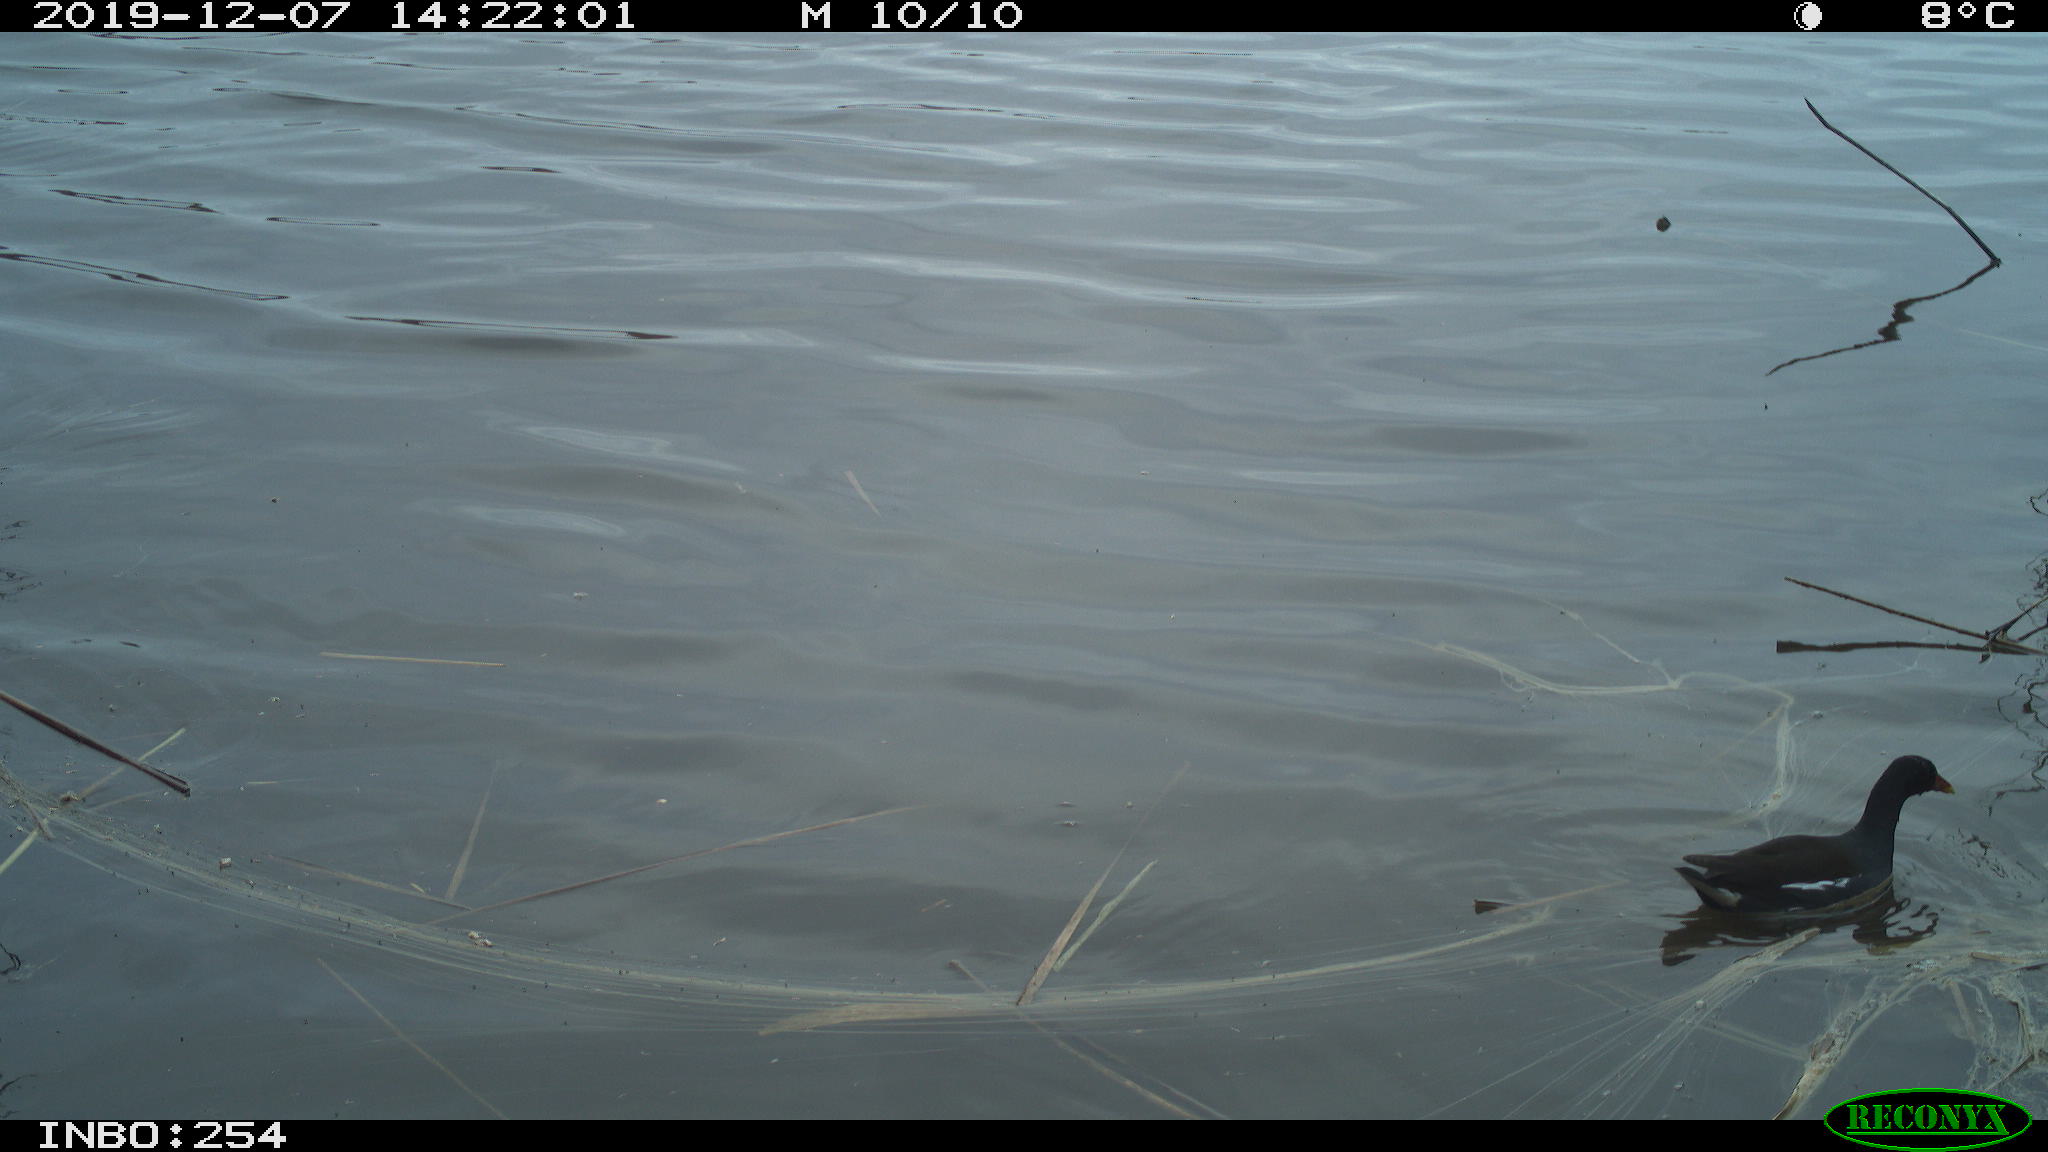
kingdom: Animalia
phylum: Chordata
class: Aves
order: Gruiformes
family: Rallidae
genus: Gallinula
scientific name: Gallinula chloropus
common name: Common moorhen
